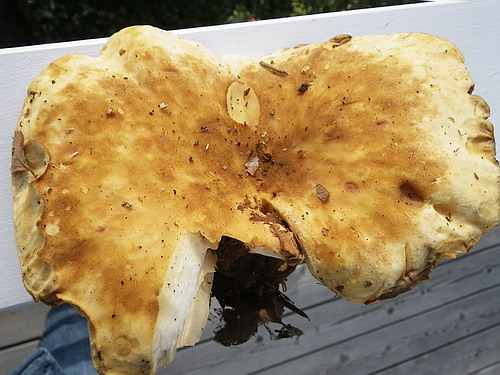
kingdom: Fungi
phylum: Basidiomycota
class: Agaricomycetes
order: Boletales
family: Tapinellaceae
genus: Tapinella
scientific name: Tapinella atrotomentosa
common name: sortfiltet viftesvamp
